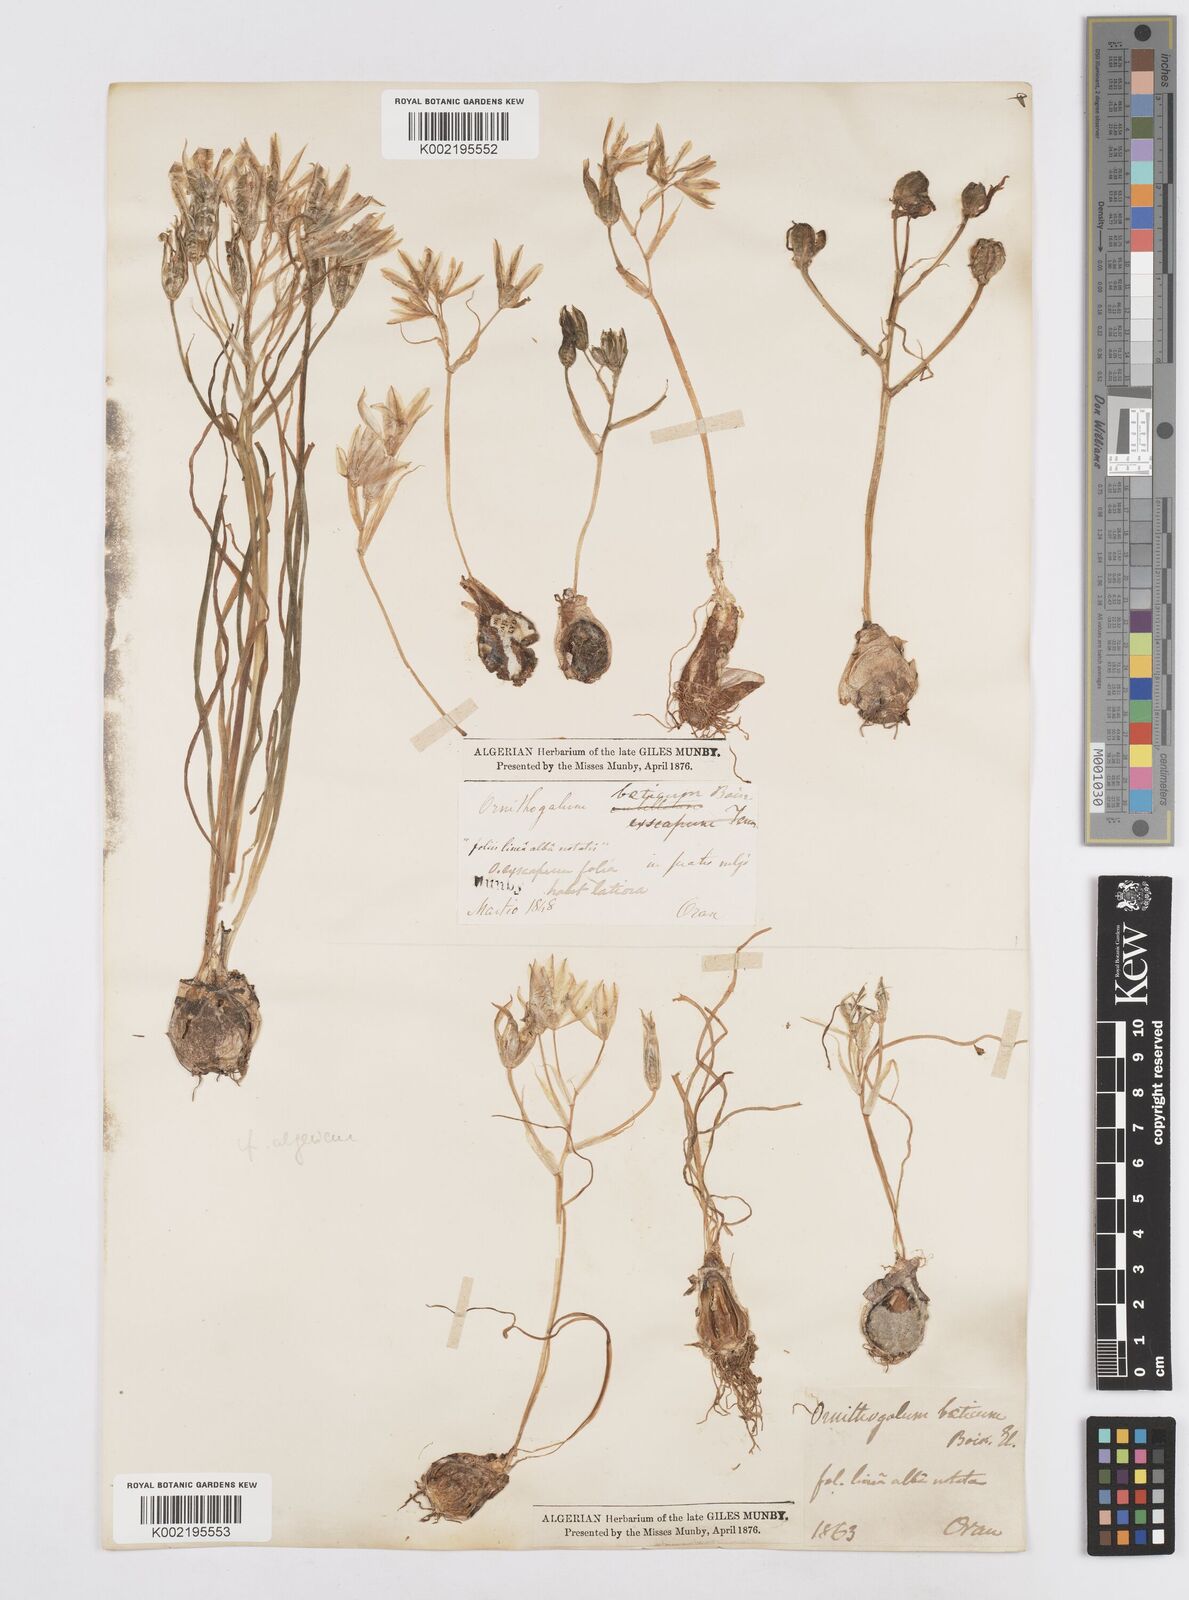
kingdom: Plantae
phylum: Tracheophyta
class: Liliopsida
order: Asparagales
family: Asparagaceae
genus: Ornithogalum
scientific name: Ornithogalum umbellatum
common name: Garden star-of-bethlehem
